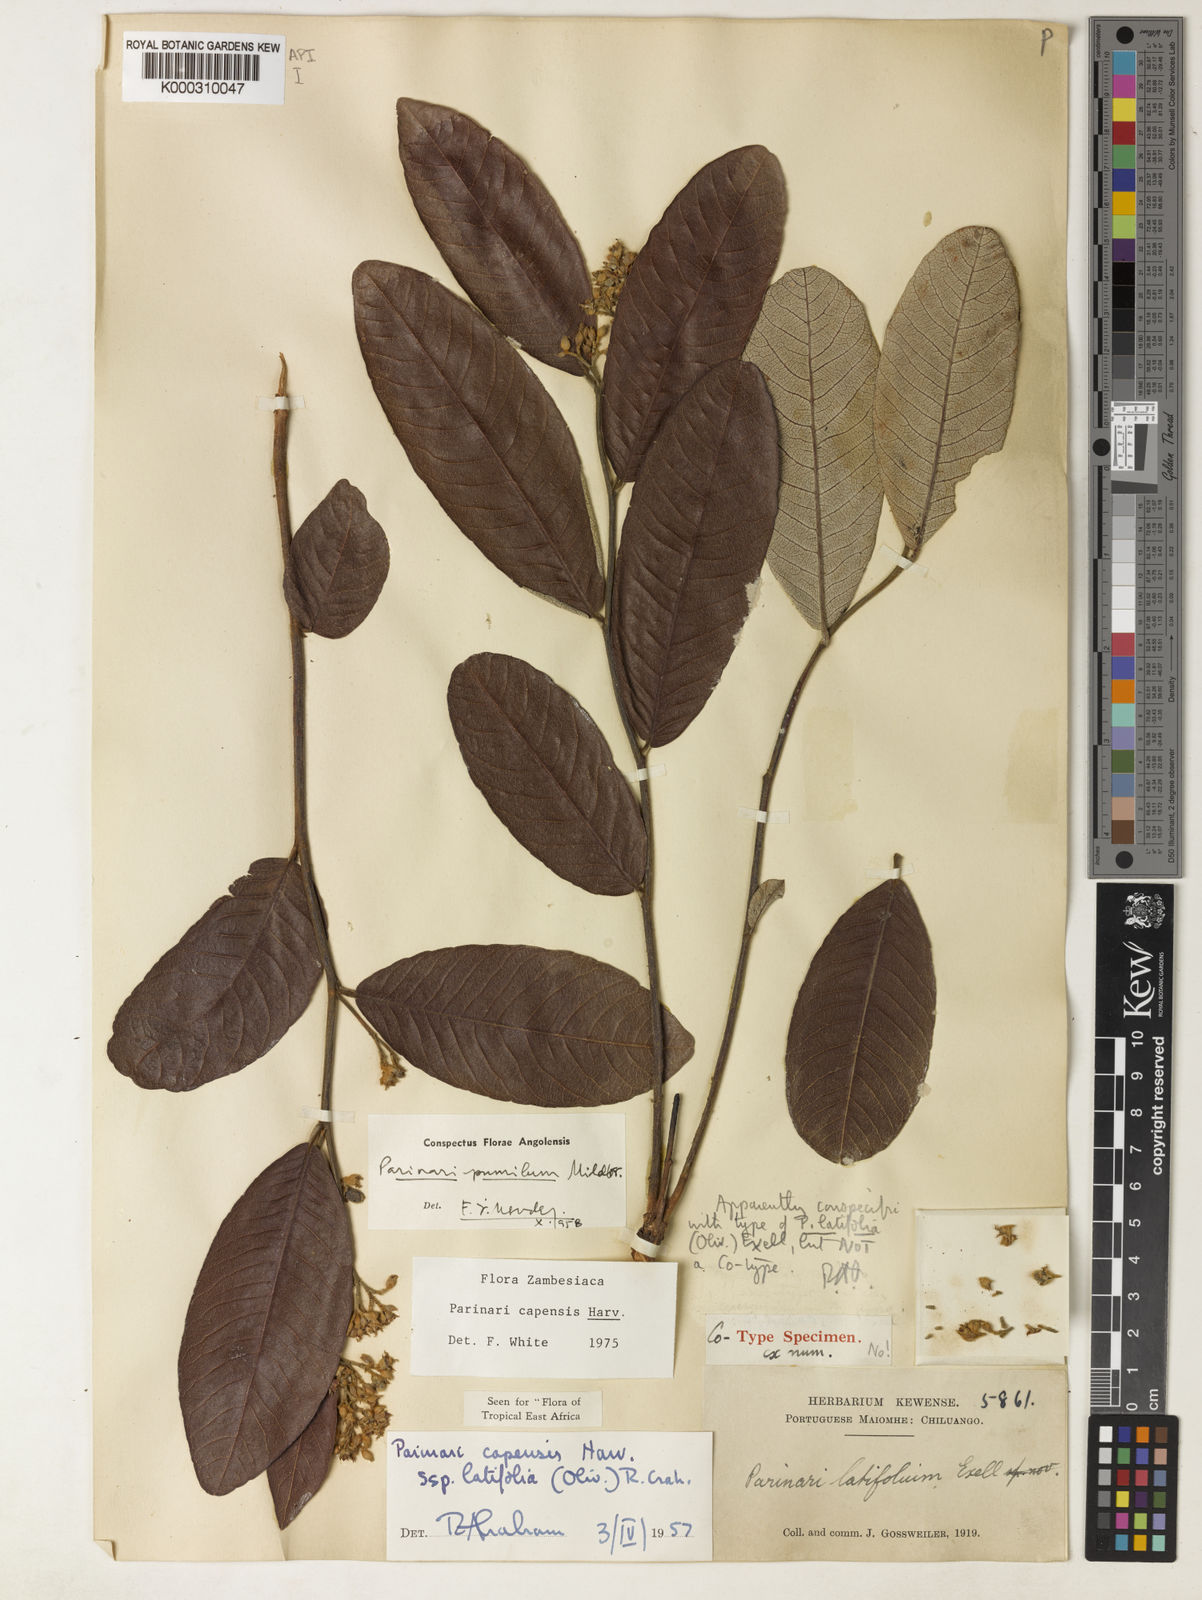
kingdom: Plantae
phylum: Tracheophyta
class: Magnoliopsida
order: Malpighiales
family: Chrysobalanaceae
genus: Parinari
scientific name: Parinari capensis
